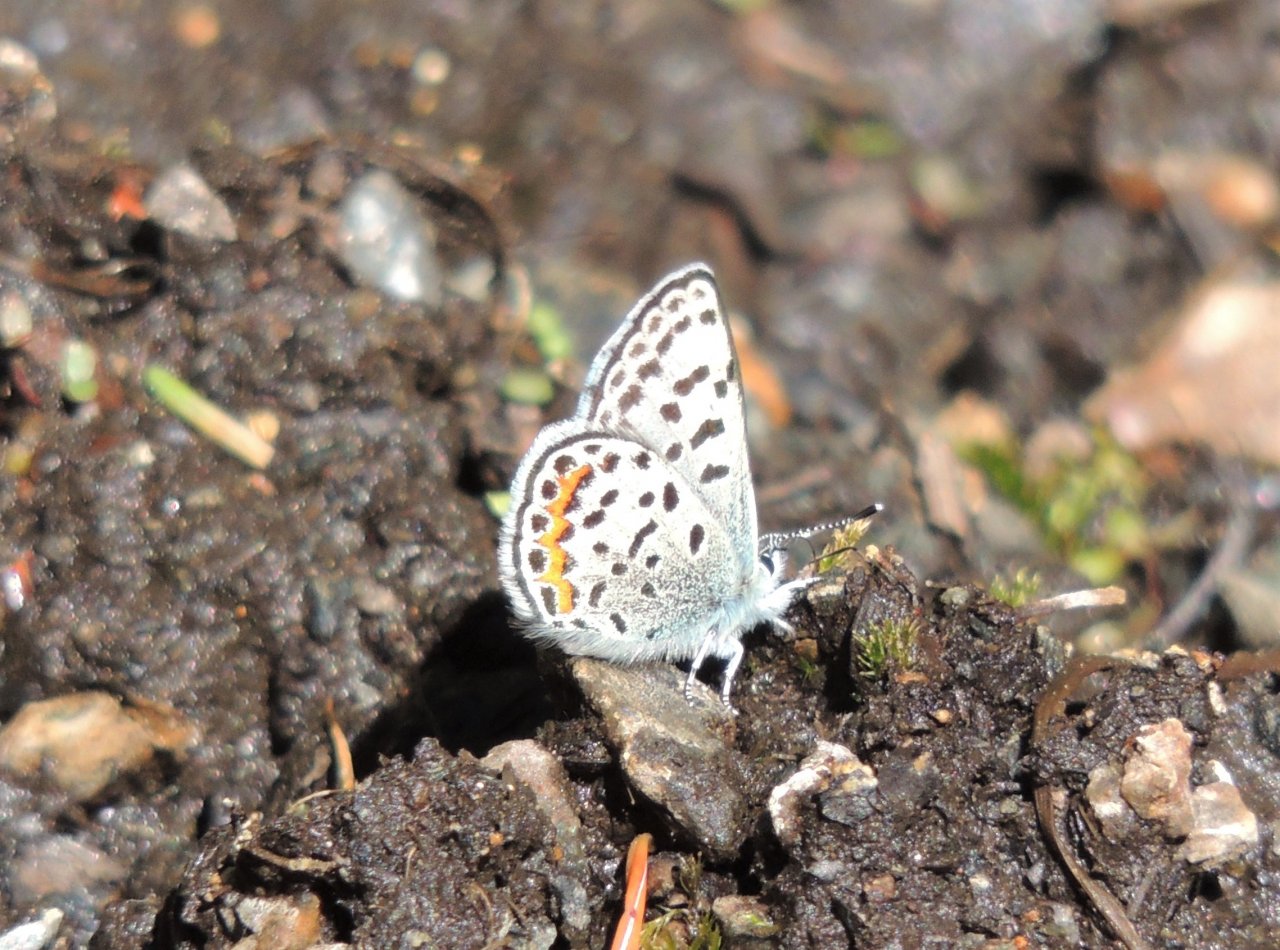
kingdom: Animalia
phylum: Arthropoda
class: Insecta
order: Lepidoptera
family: Lycaenidae
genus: Euphilotes
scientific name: Euphilotes battoides
